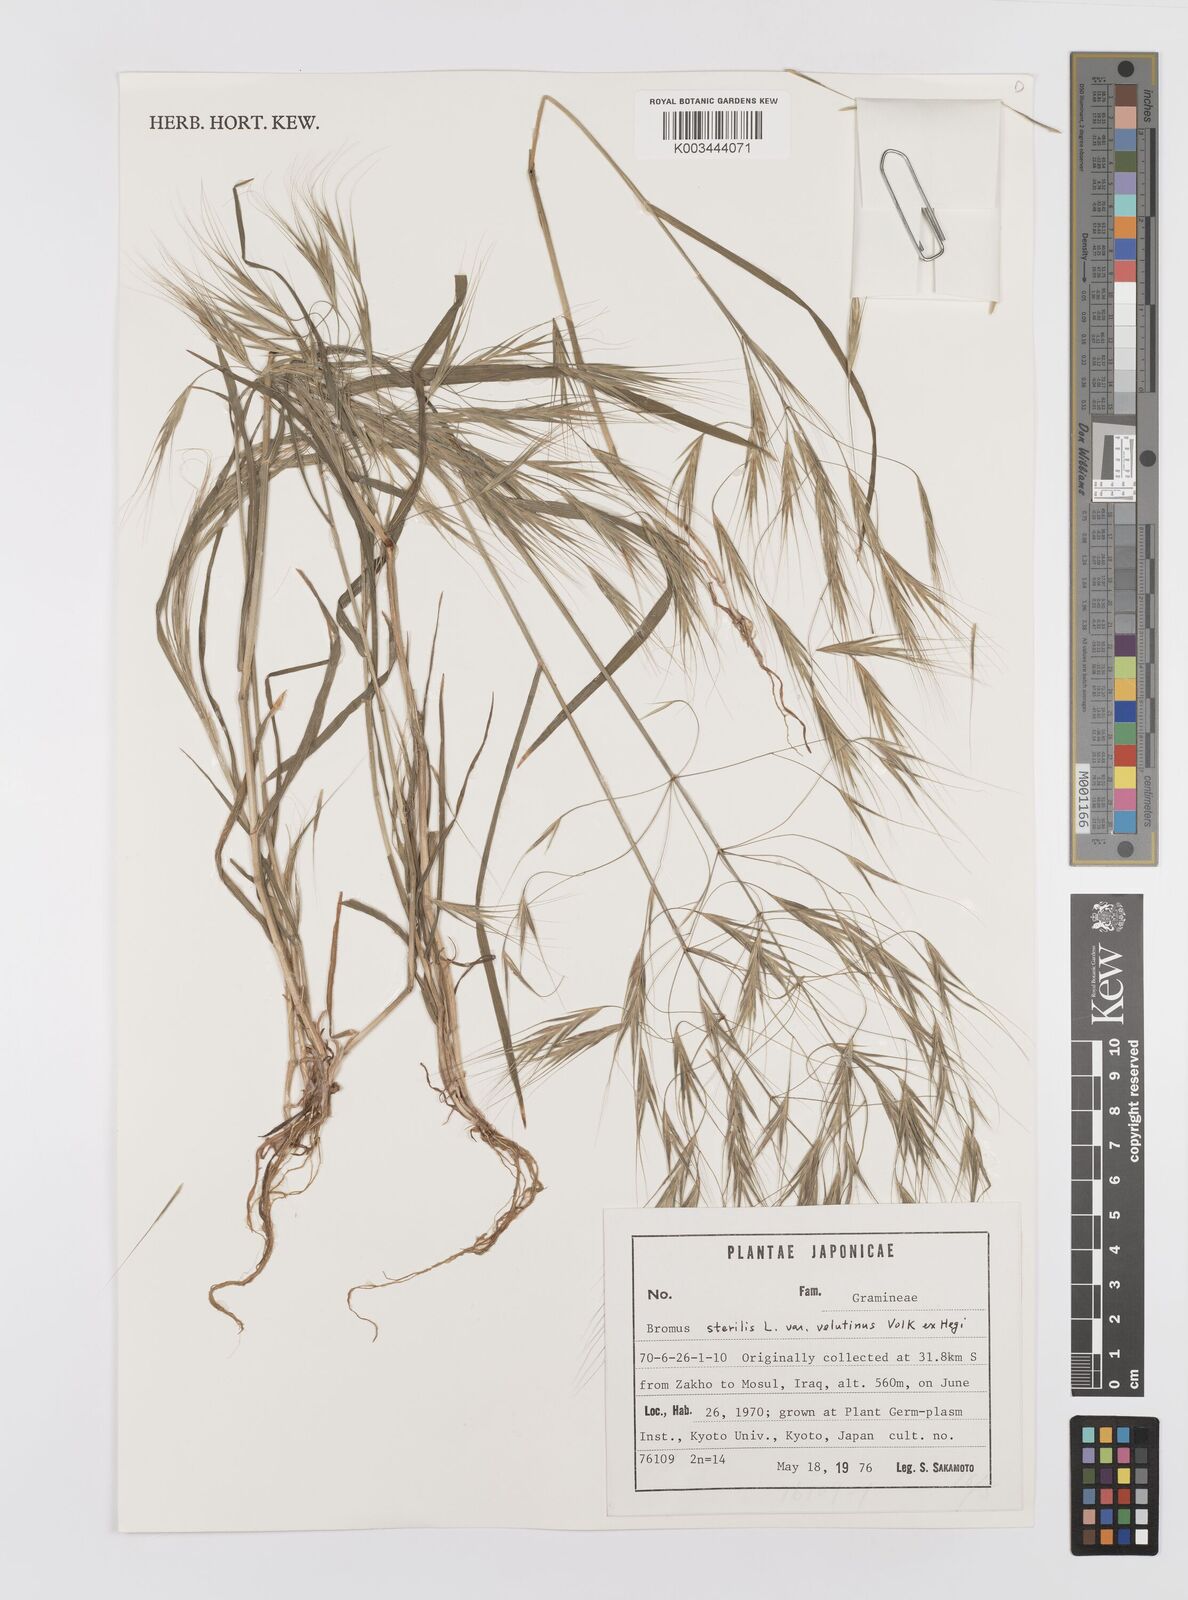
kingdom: Plantae
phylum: Tracheophyta
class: Liliopsida
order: Poales
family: Poaceae
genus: Bromus
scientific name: Bromus sterilis
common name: Poverty brome
